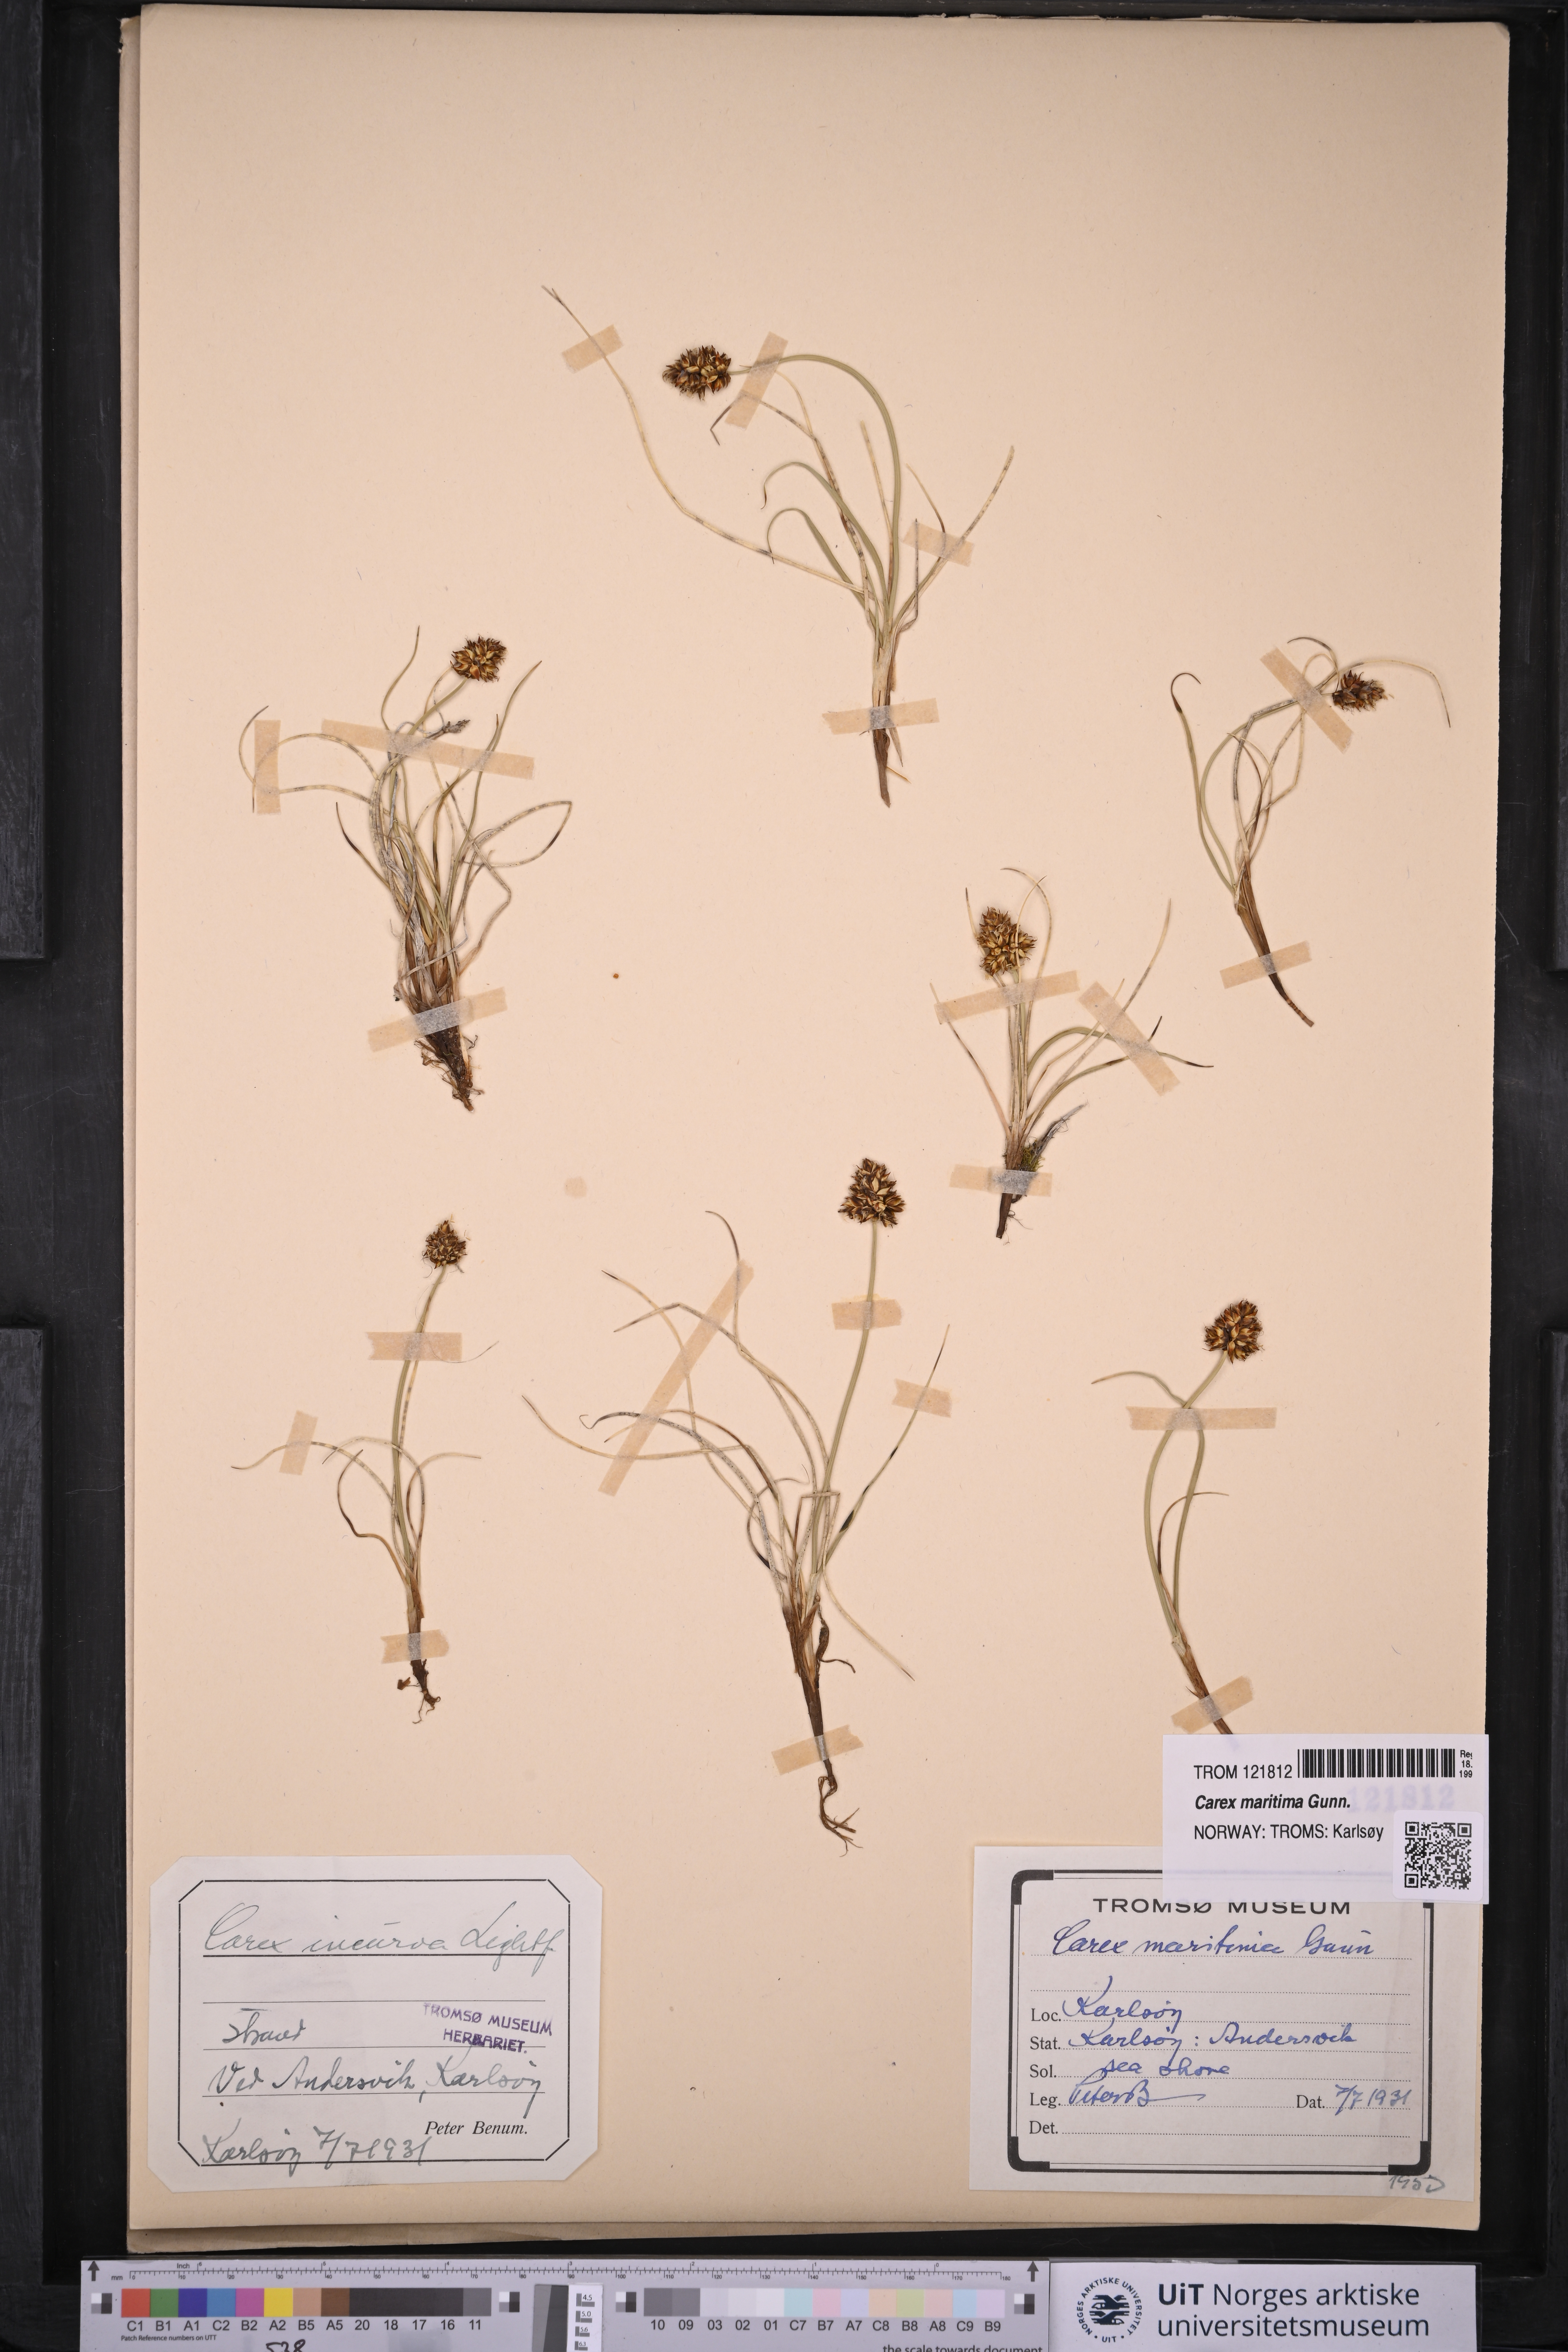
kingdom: Plantae
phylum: Tracheophyta
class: Liliopsida
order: Poales
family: Cyperaceae
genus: Carex
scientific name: Carex maritima
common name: Curved sedge
